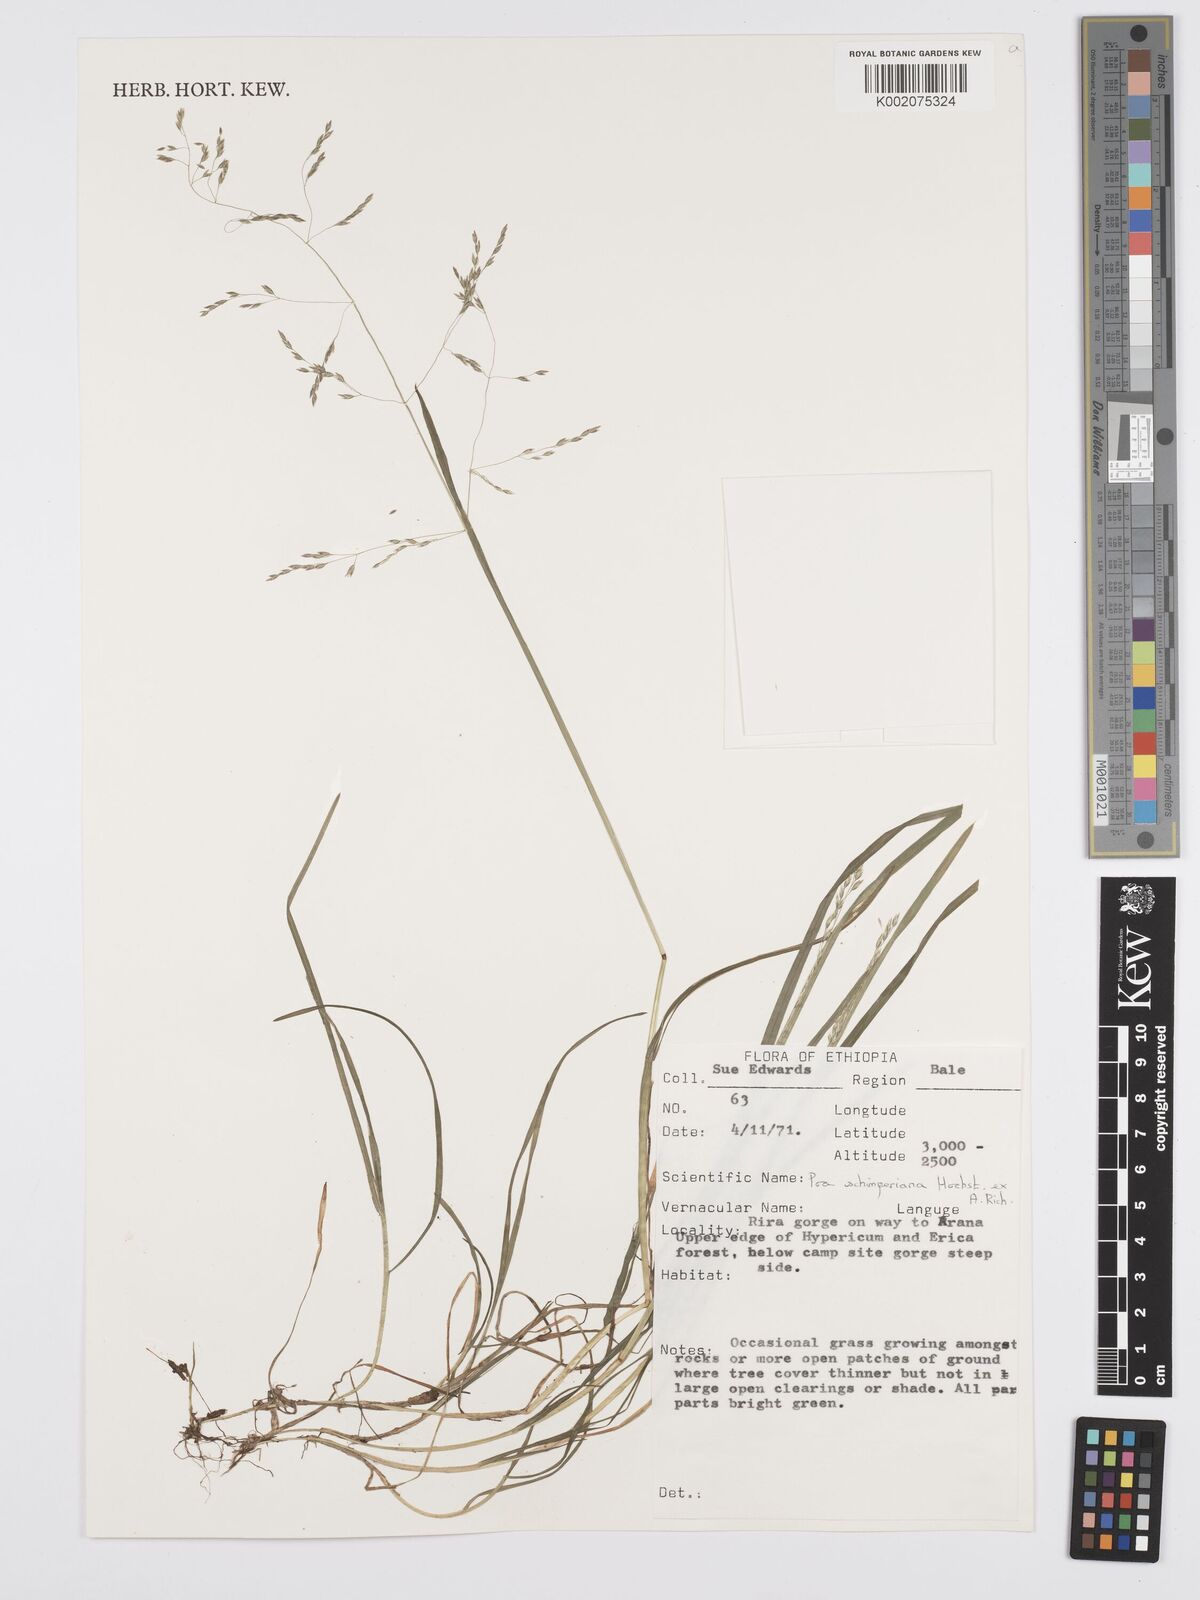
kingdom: Plantae
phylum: Tracheophyta
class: Liliopsida
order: Poales
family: Poaceae
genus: Poa
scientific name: Poa schimperiana
